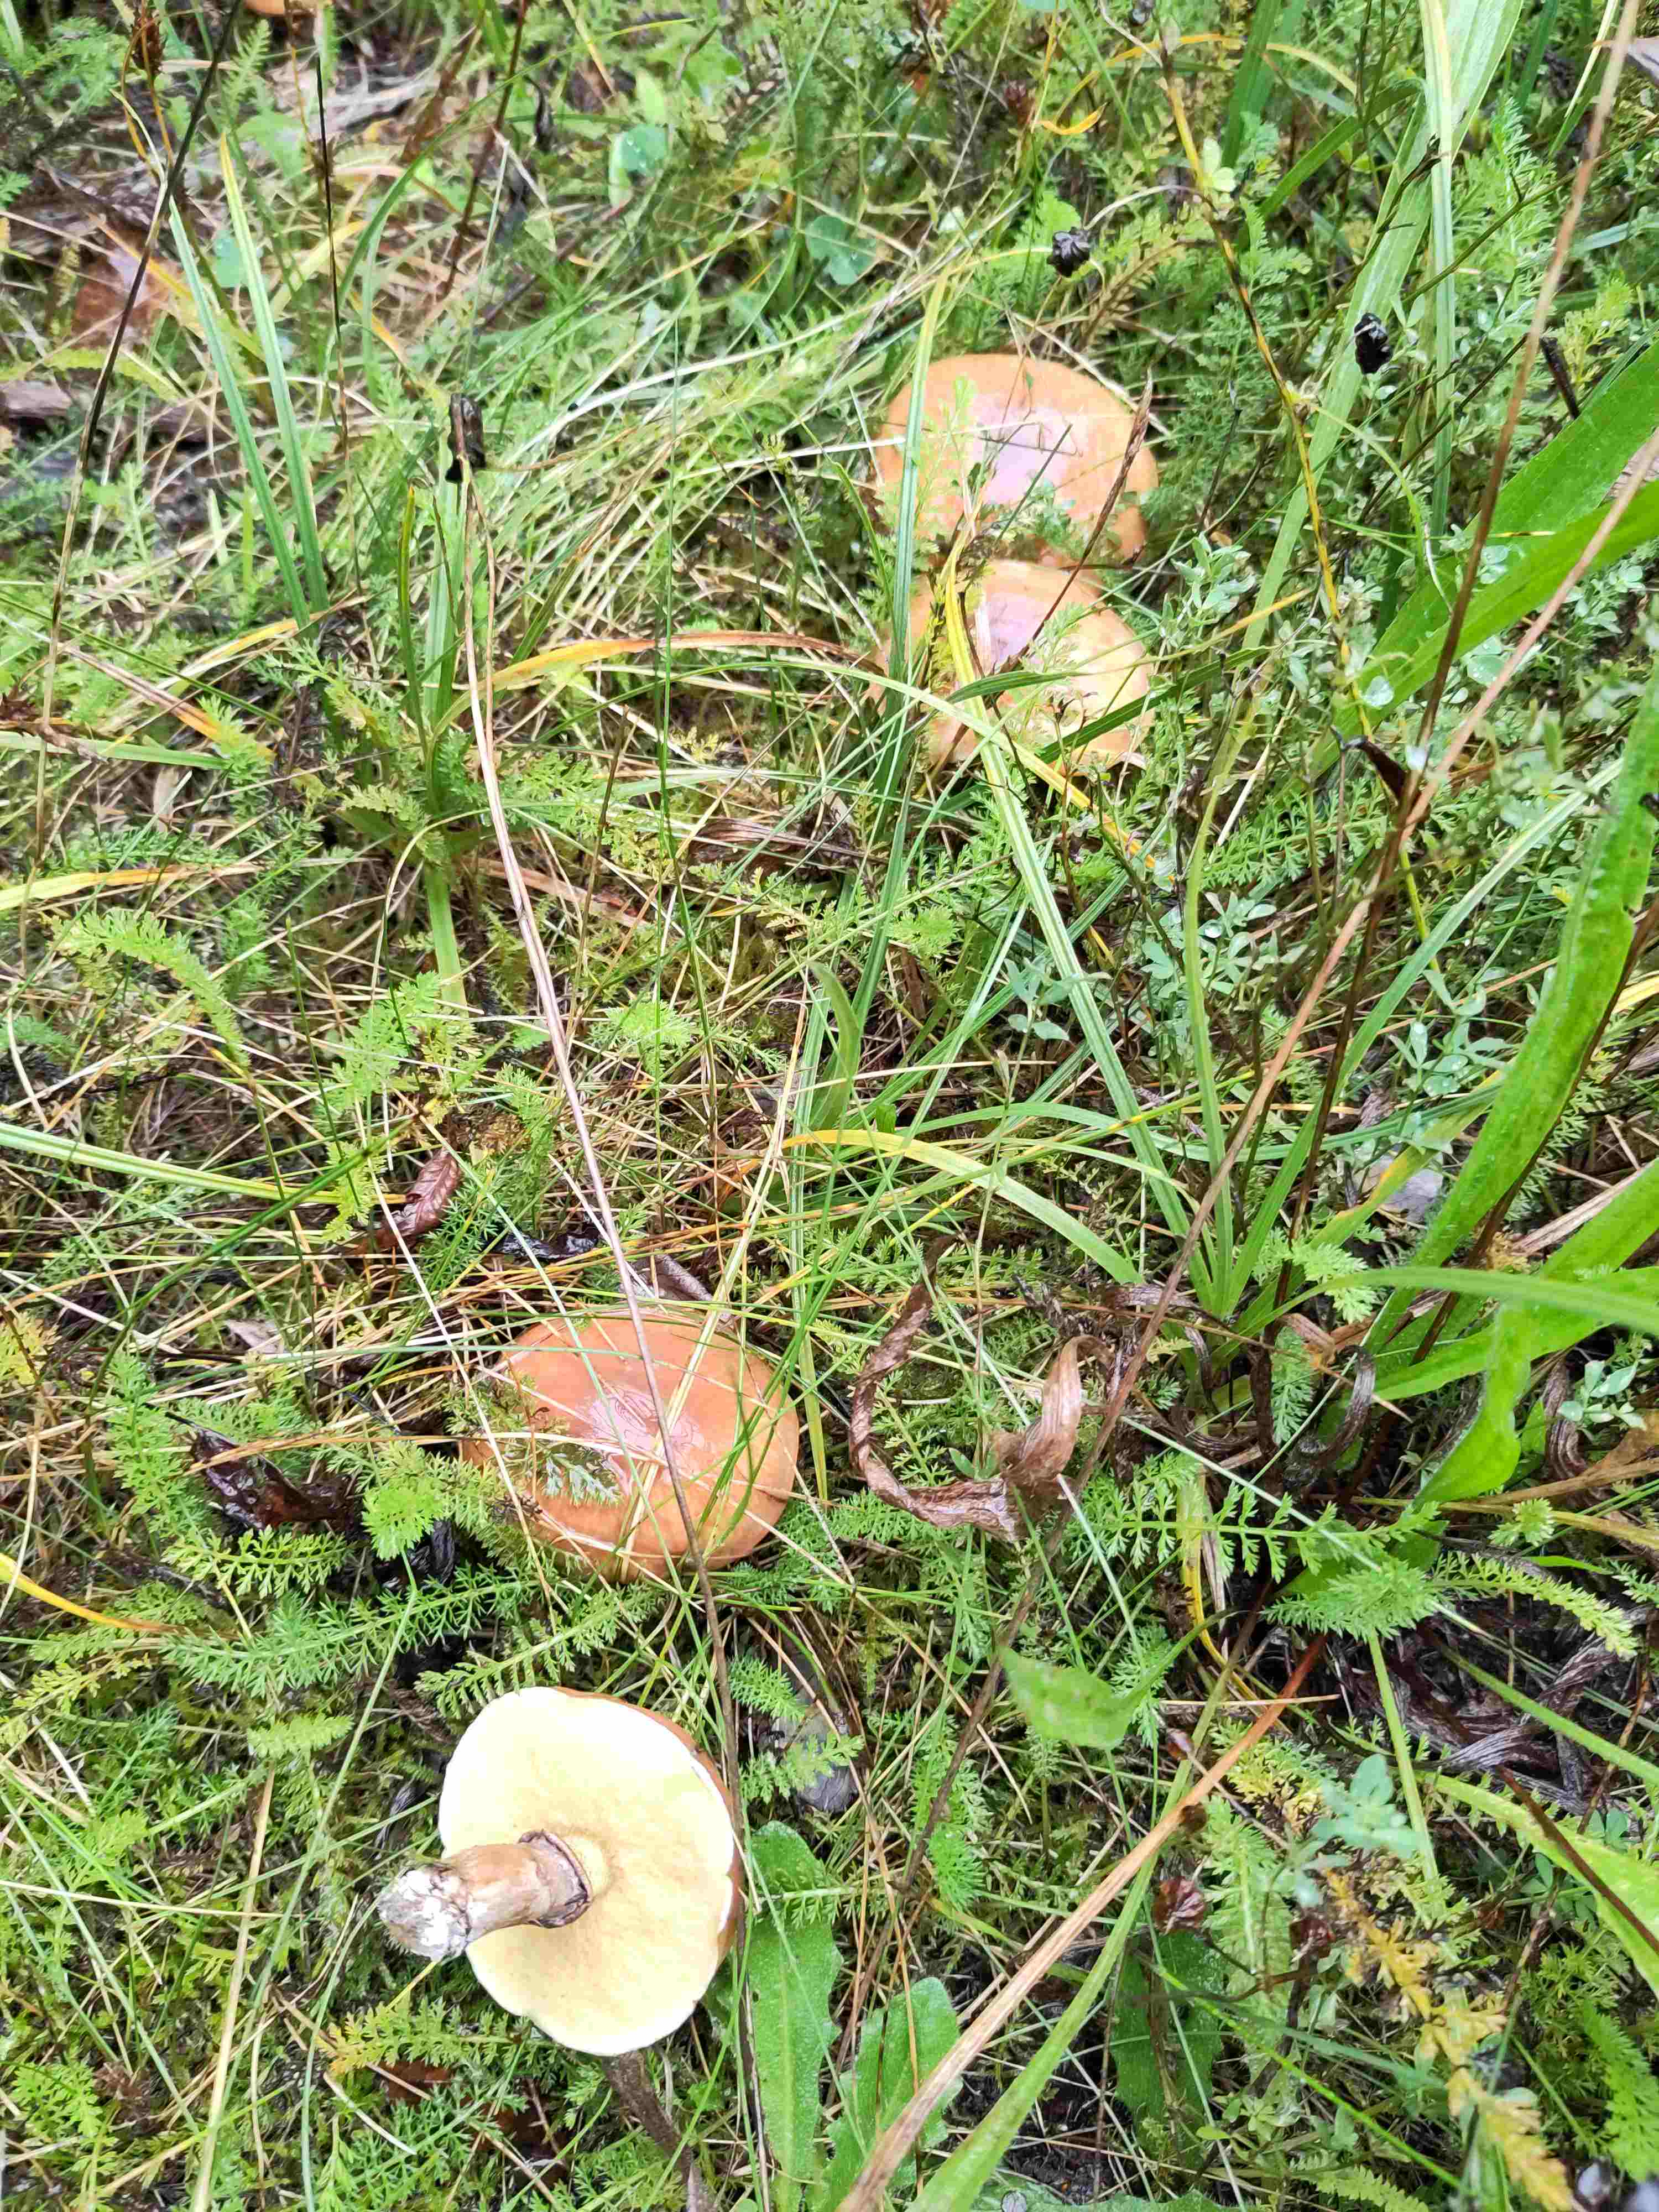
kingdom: Fungi
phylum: Basidiomycota
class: Agaricomycetes
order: Boletales
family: Suillaceae
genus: Suillus
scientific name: Suillus luteus
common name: brungul slimrørhat
